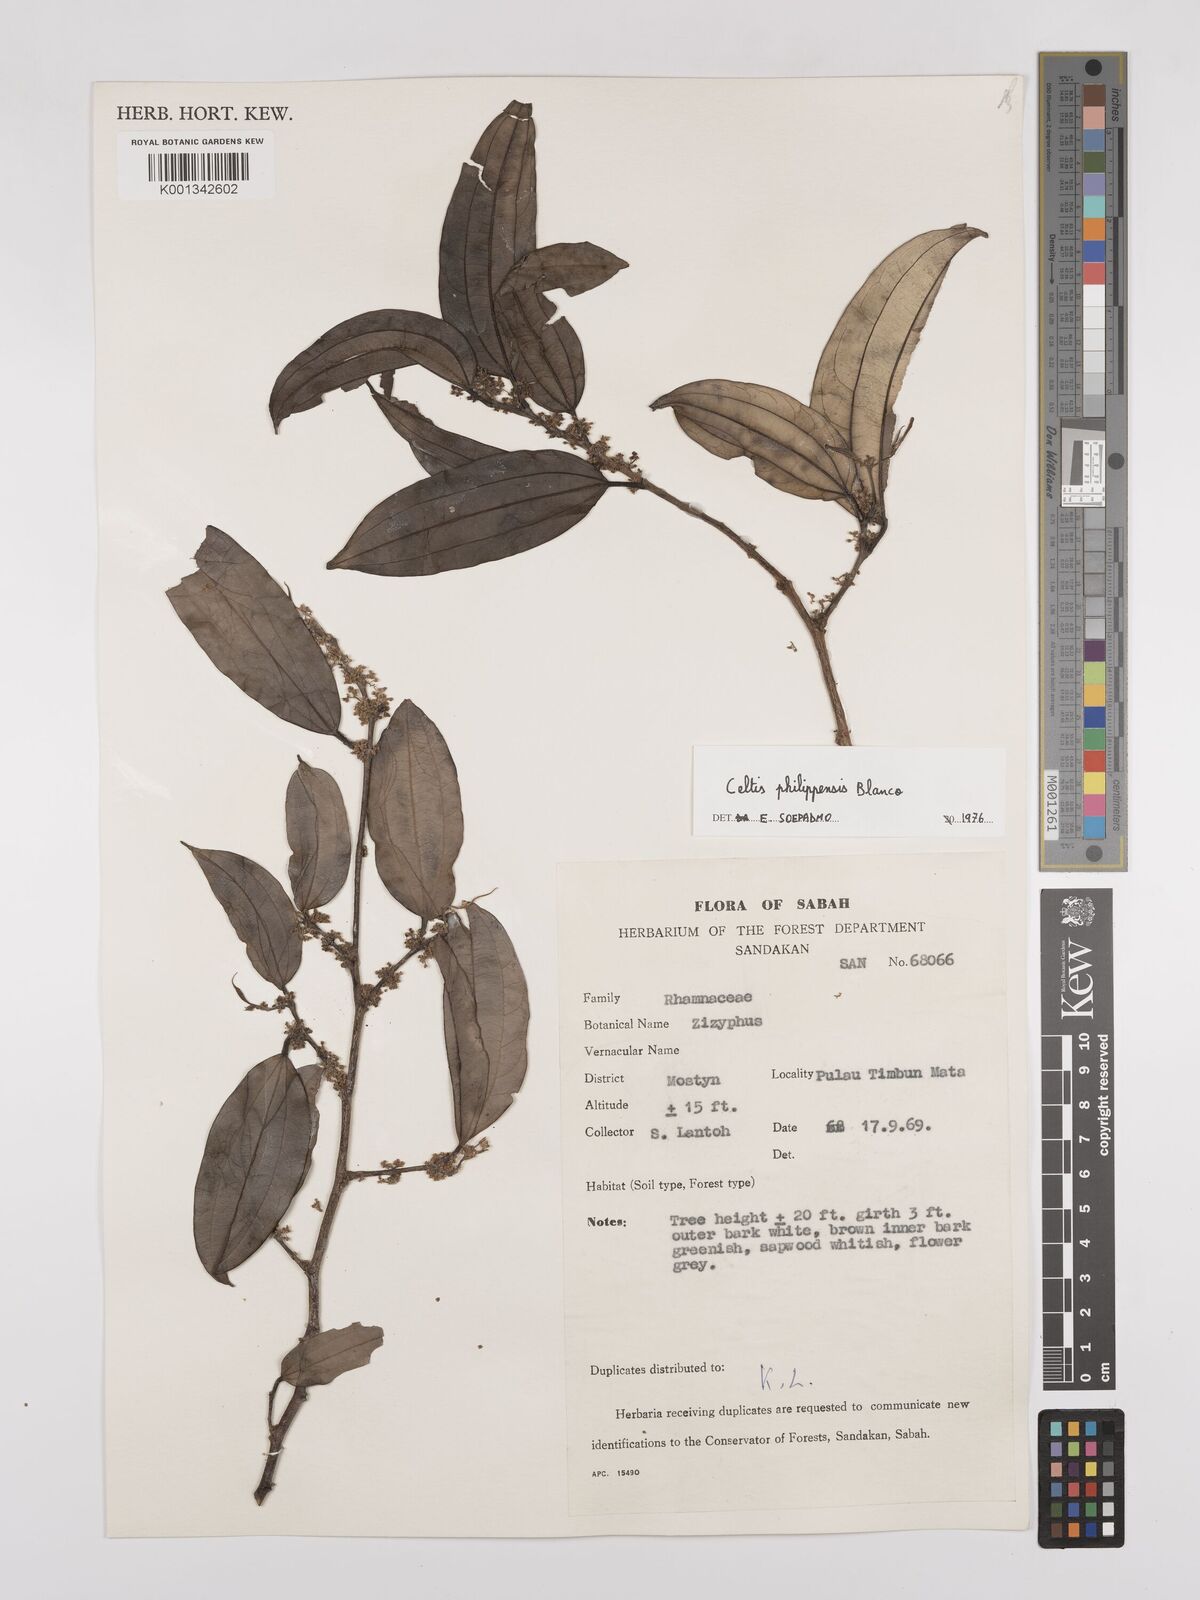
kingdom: Plantae
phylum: Tracheophyta
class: Magnoliopsida
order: Rosales
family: Cannabaceae
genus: Celtis
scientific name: Celtis philippensis
